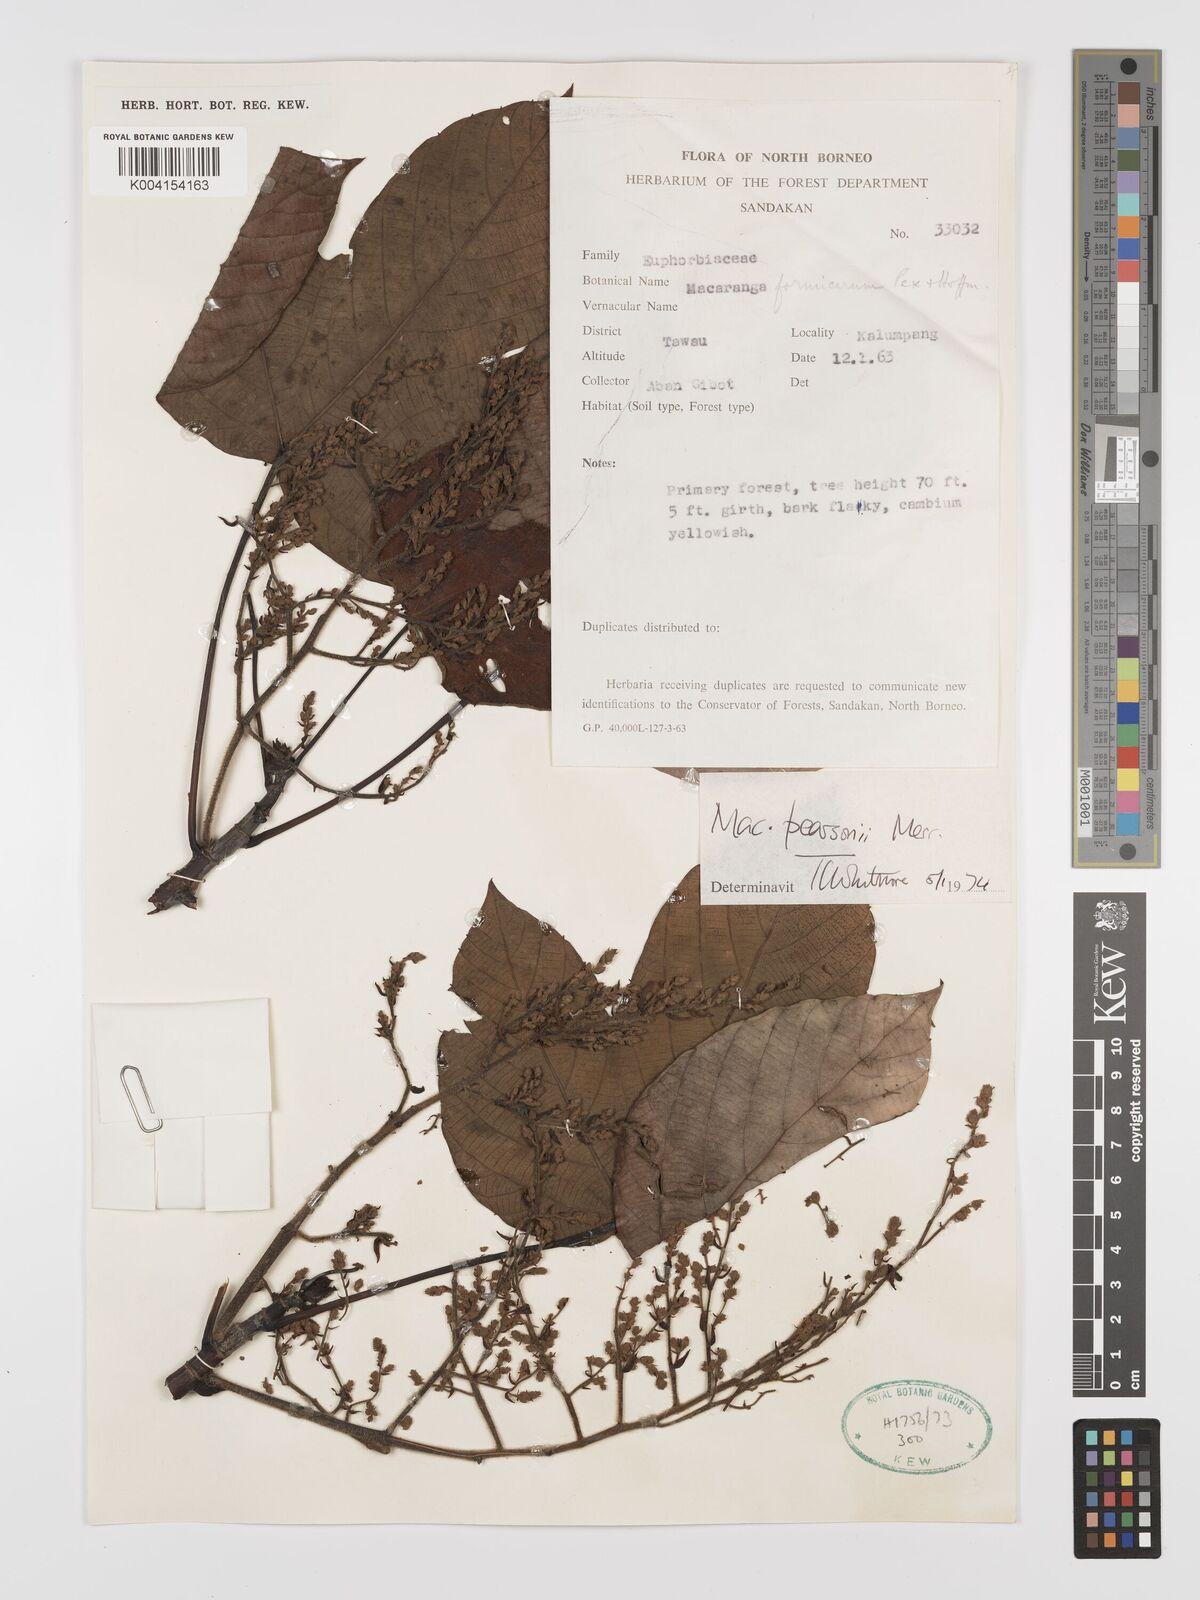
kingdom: Plantae
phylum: Tracheophyta
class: Magnoliopsida
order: Malpighiales
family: Euphorbiaceae
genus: Macaranga
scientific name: Macaranga pearsonii
